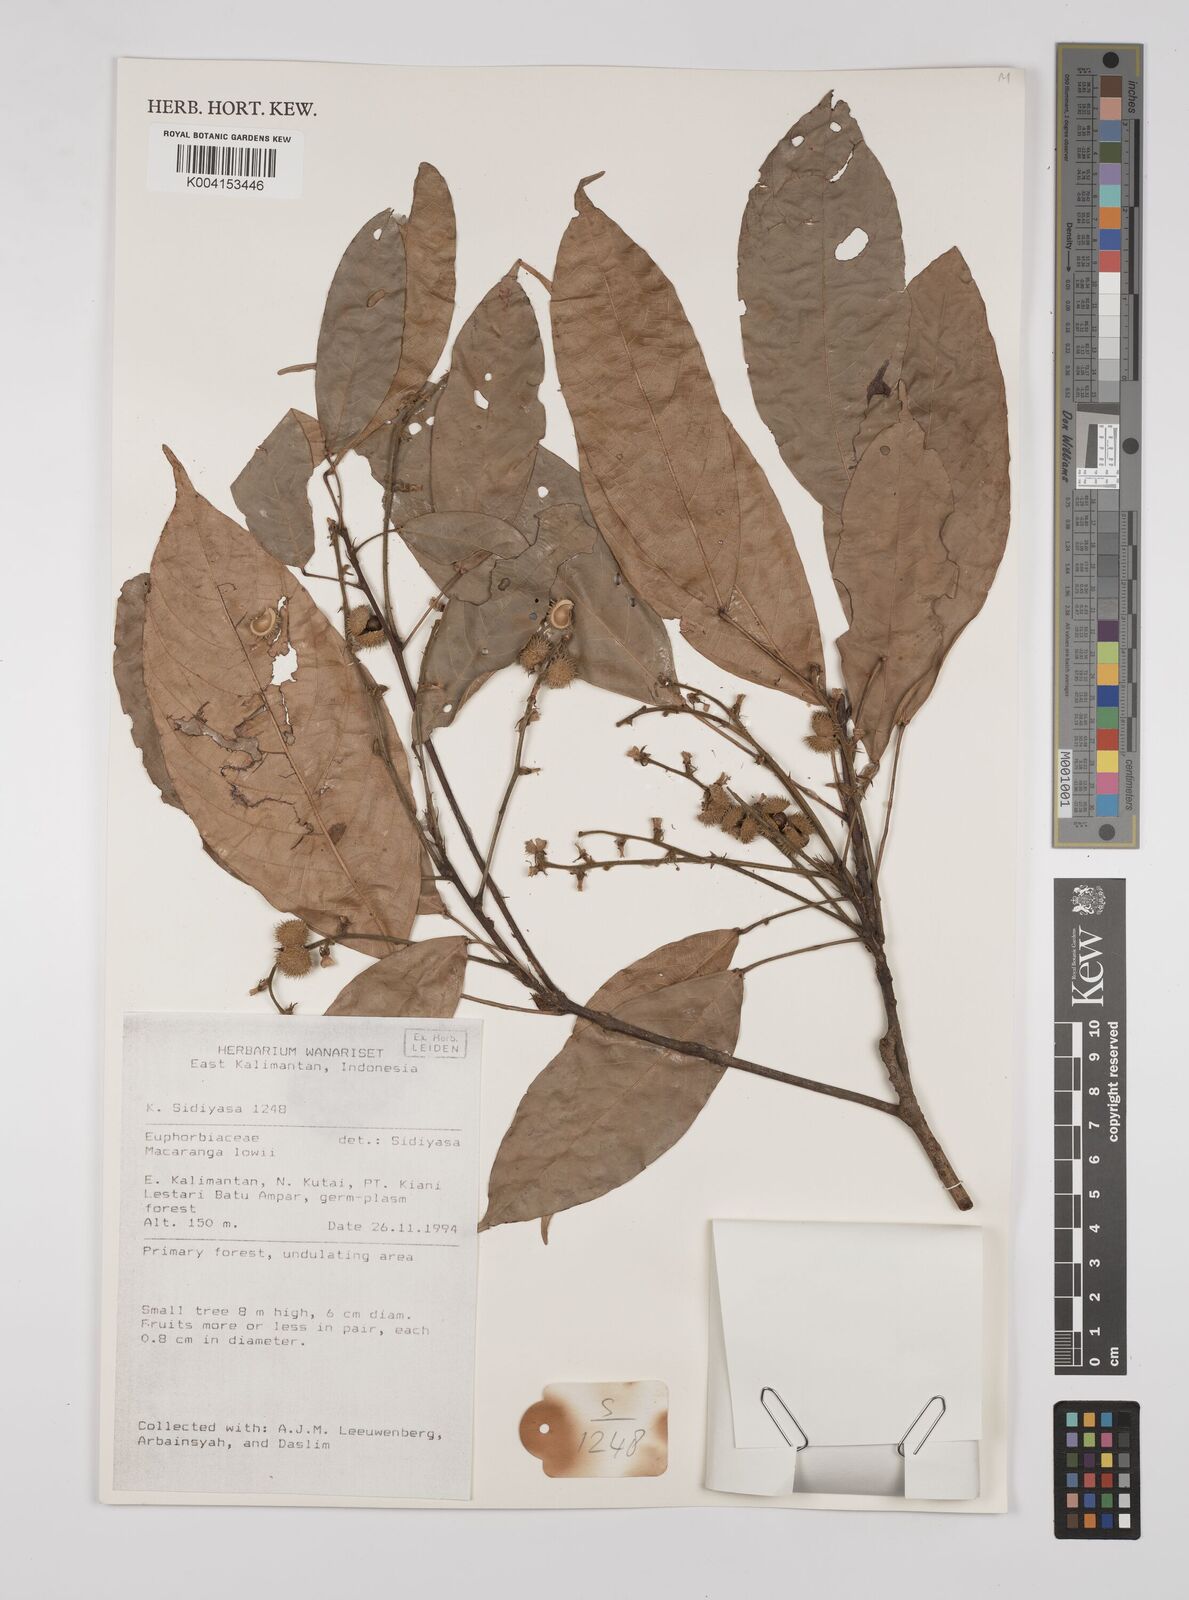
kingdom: Plantae
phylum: Tracheophyta
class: Magnoliopsida
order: Malpighiales
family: Euphorbiaceae
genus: Macaranga
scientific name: Macaranga lowii
